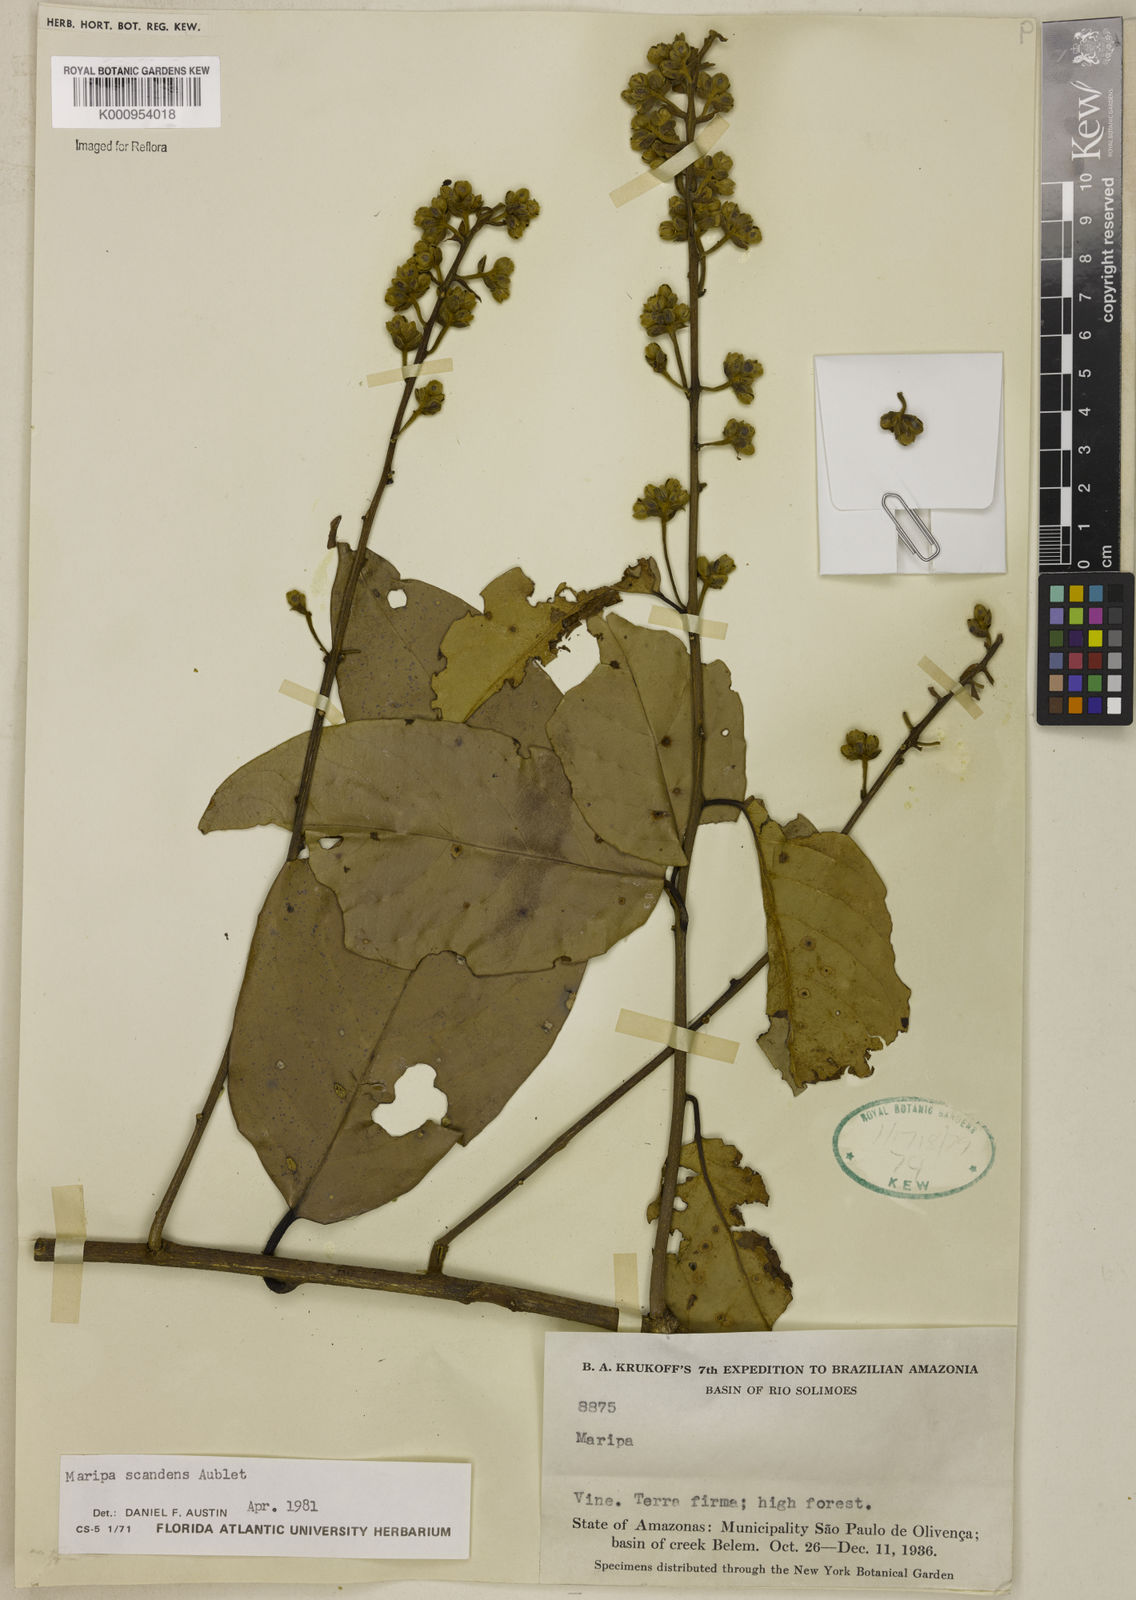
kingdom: Plantae
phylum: Tracheophyta
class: Magnoliopsida
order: Solanales
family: Convolvulaceae
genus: Maripa
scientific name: Maripa scandens
